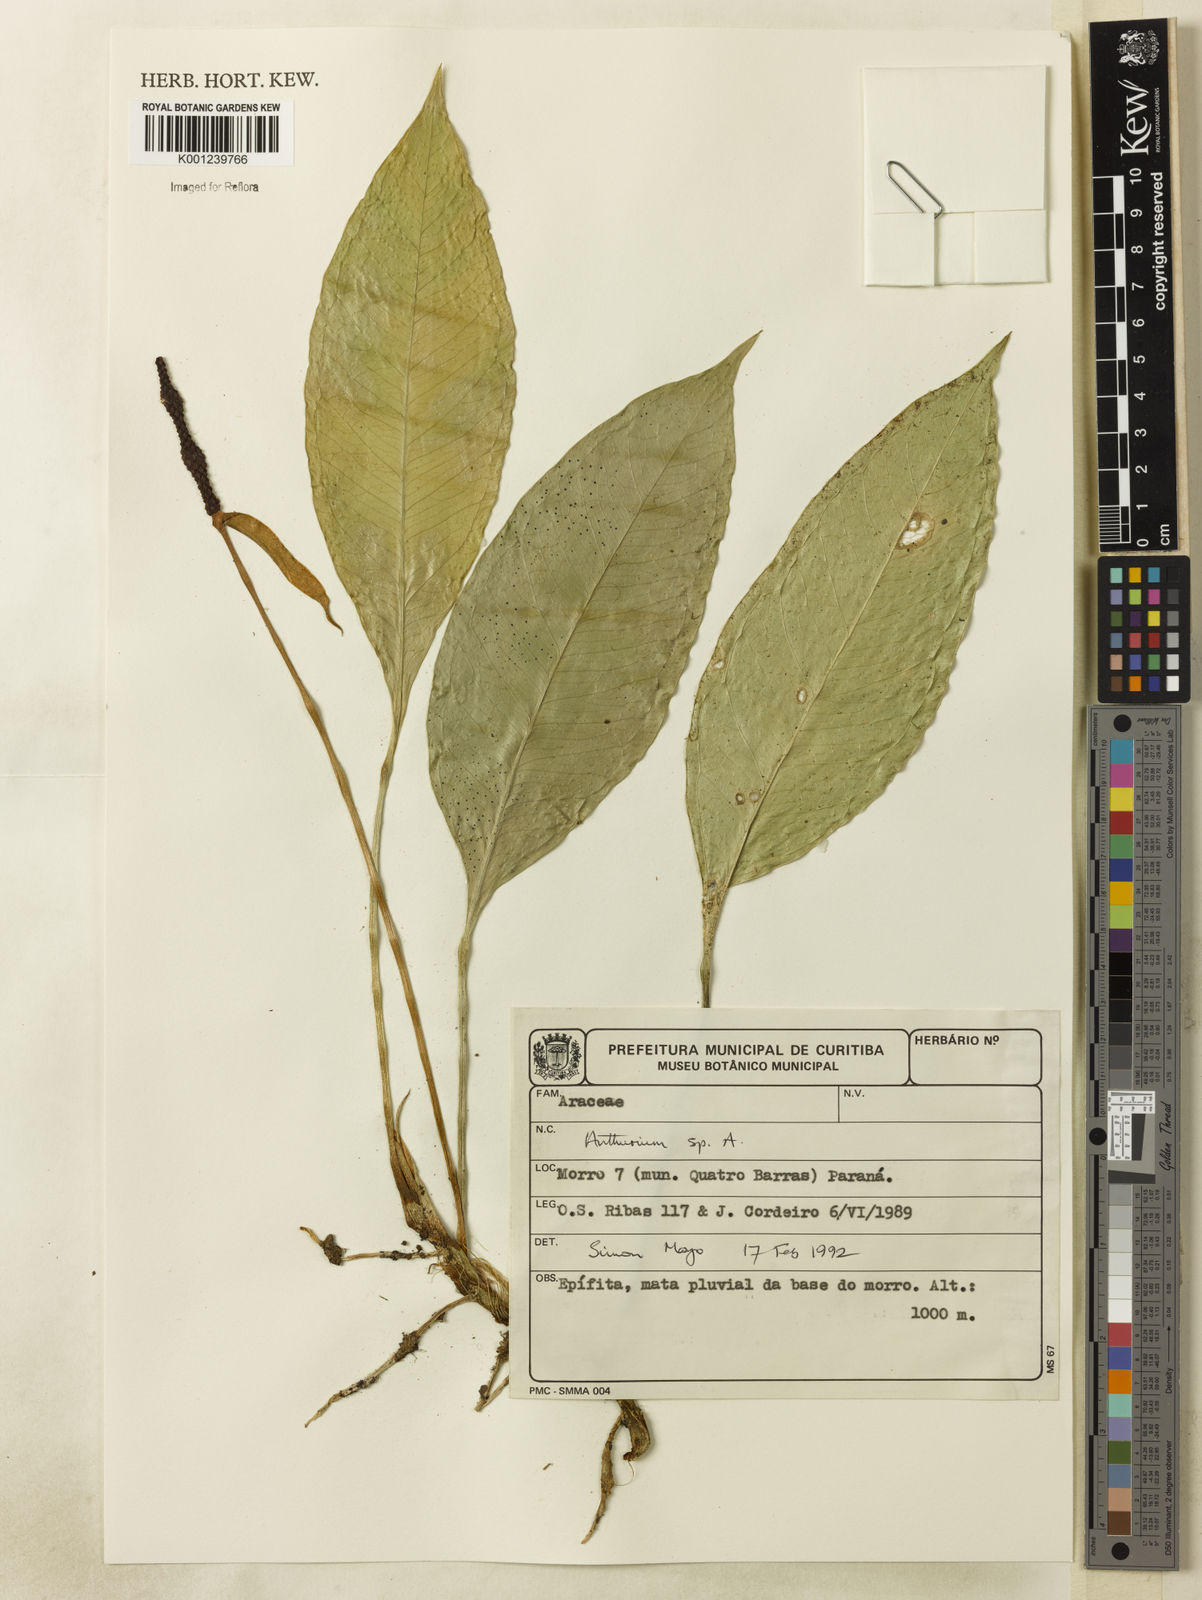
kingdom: Plantae
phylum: Tracheophyta
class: Liliopsida
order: Alismatales
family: Araceae
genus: Anthurium
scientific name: Anthurium
